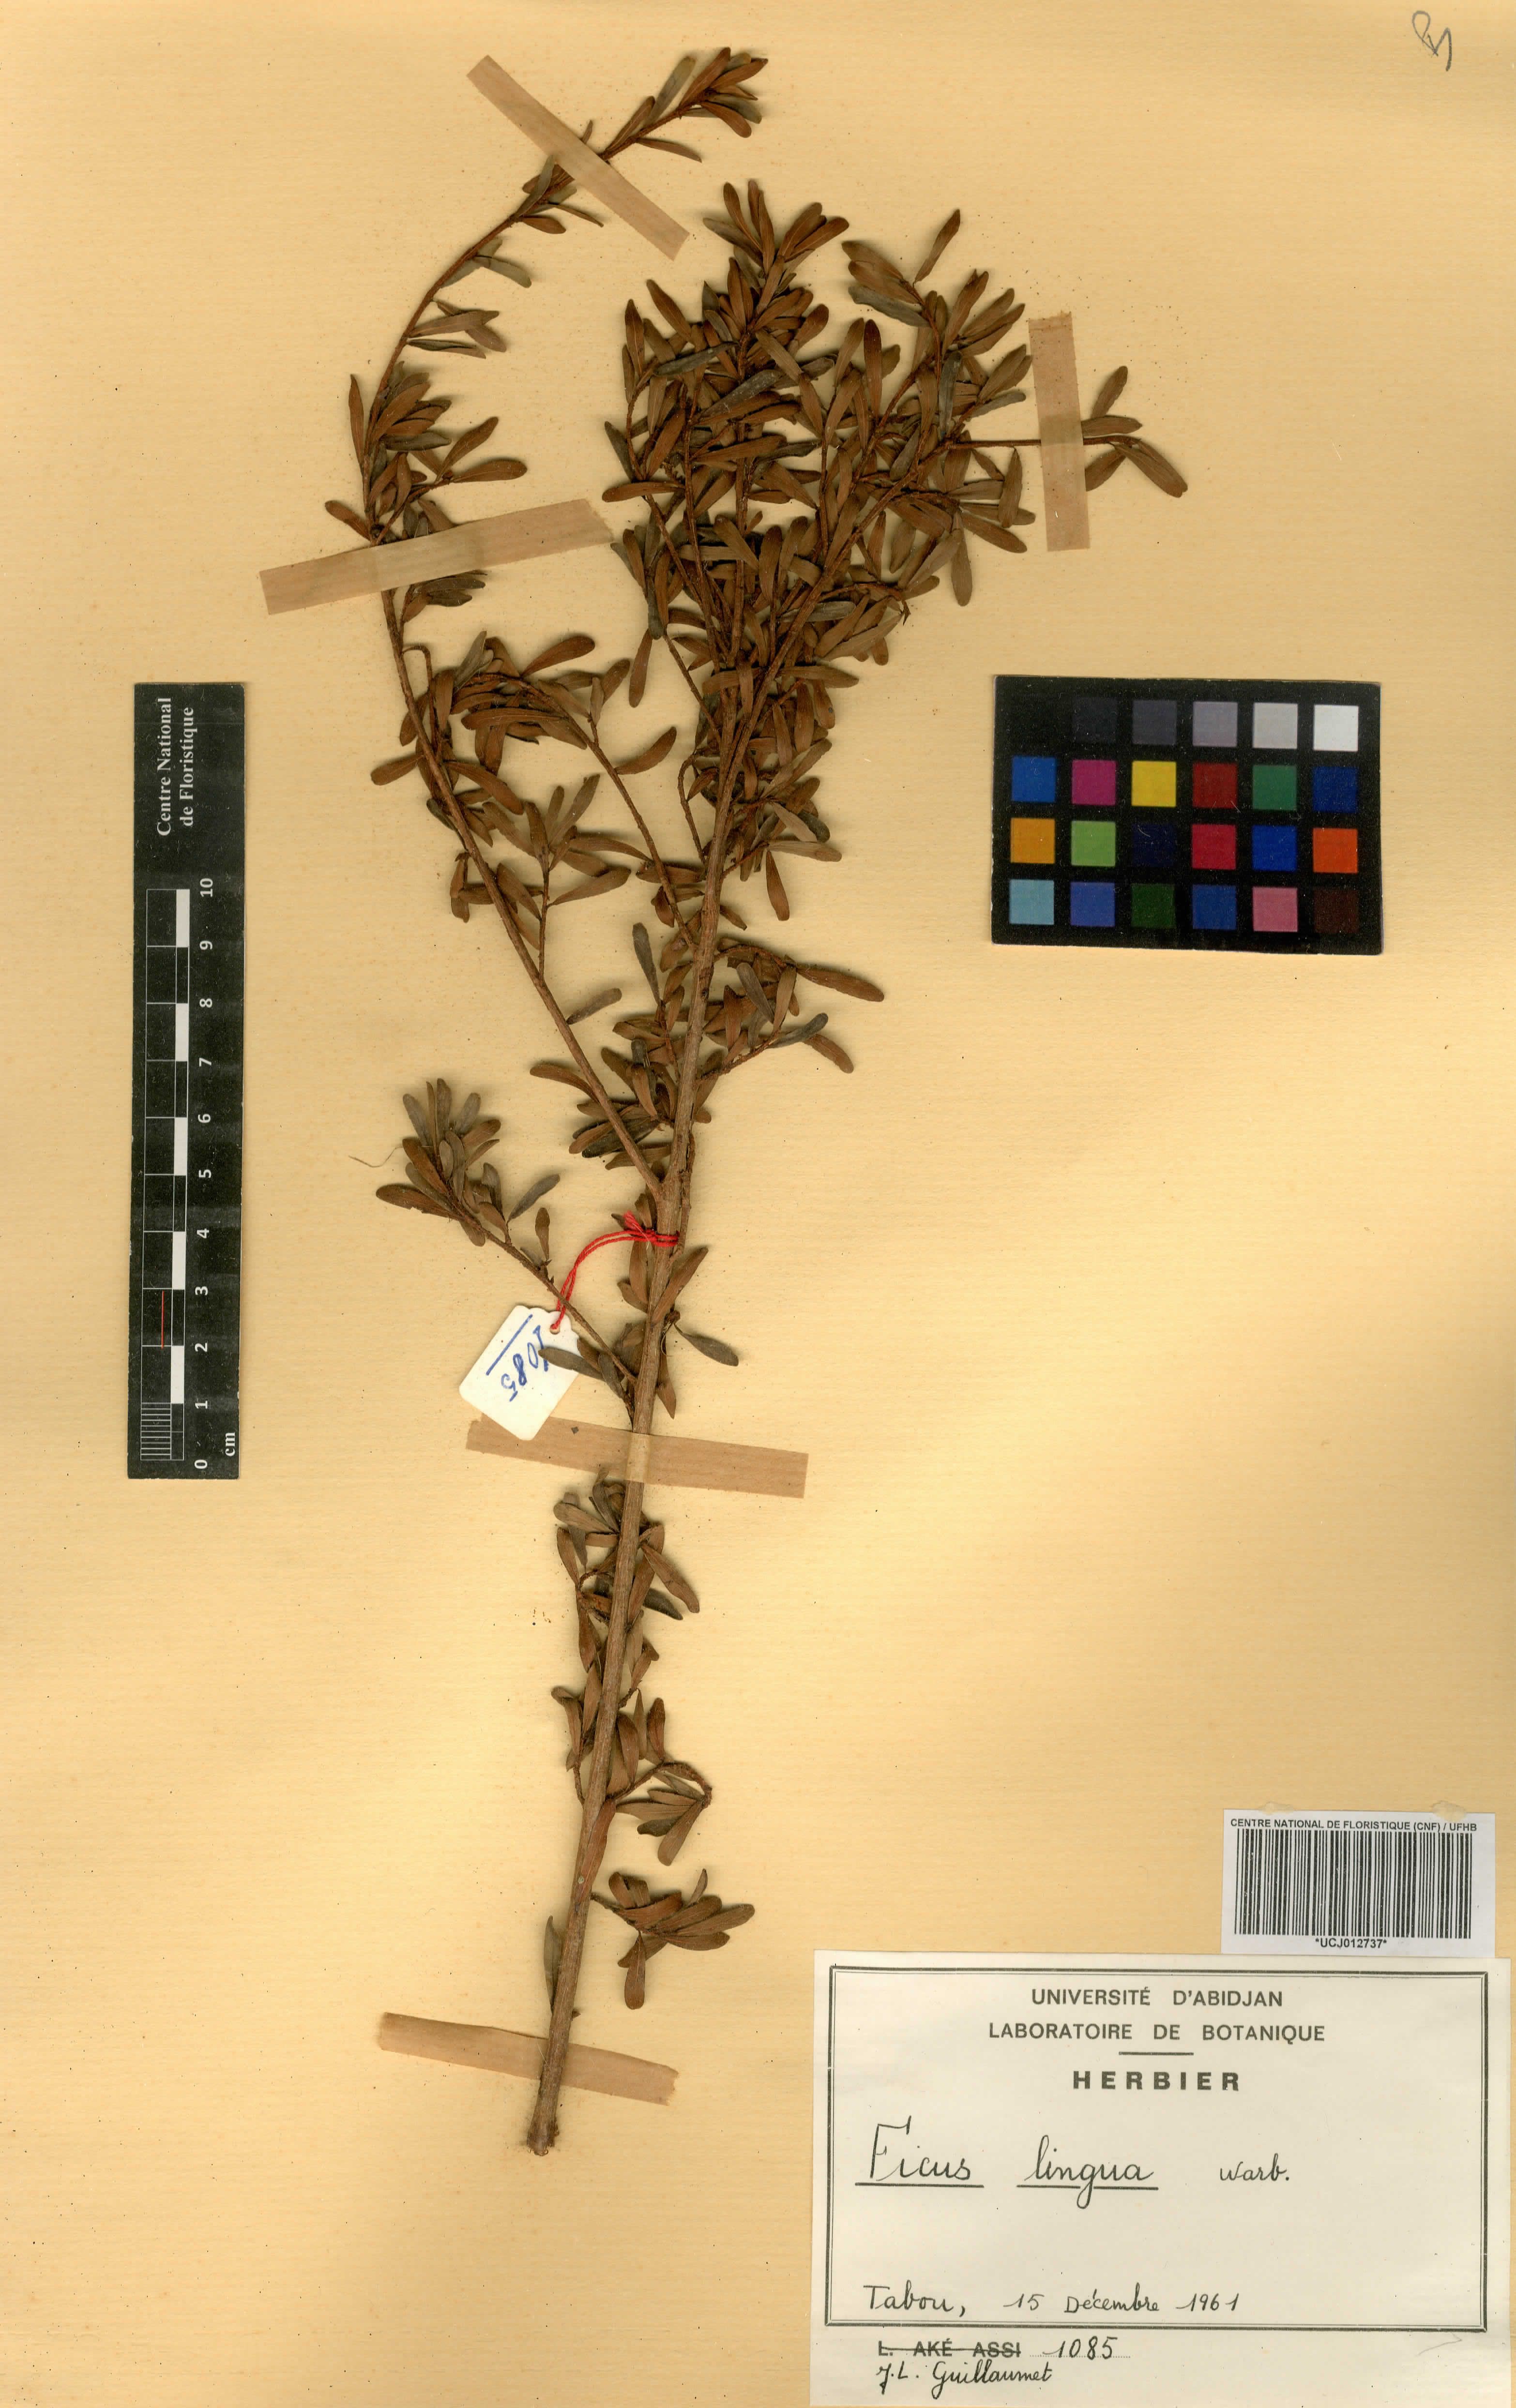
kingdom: Plantae
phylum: Tracheophyta
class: Magnoliopsida
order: Rosales
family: Moraceae
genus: Ficus
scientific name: Ficus lingua
